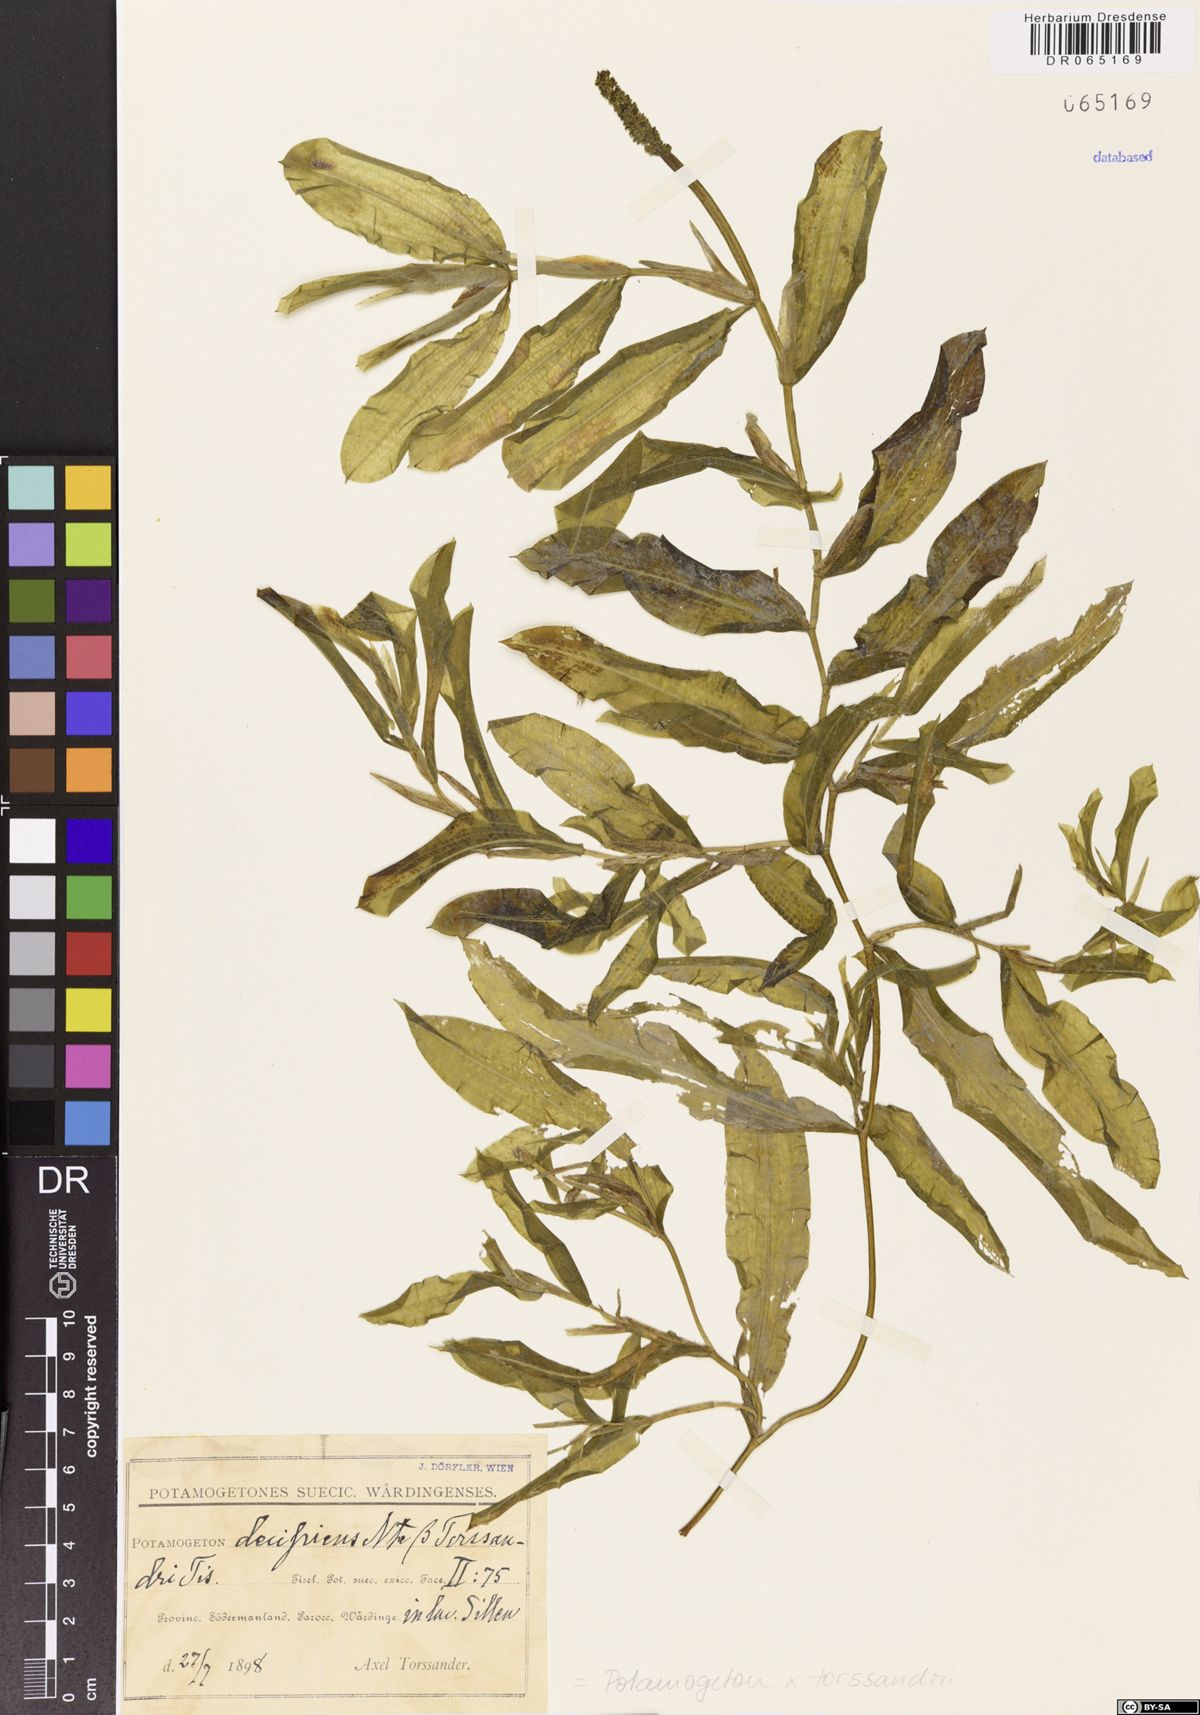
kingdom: Plantae
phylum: Tracheophyta
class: Liliopsida
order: Alismatales
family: Potamogetonaceae
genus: Potamogeton
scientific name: Potamogeton torssandrii
